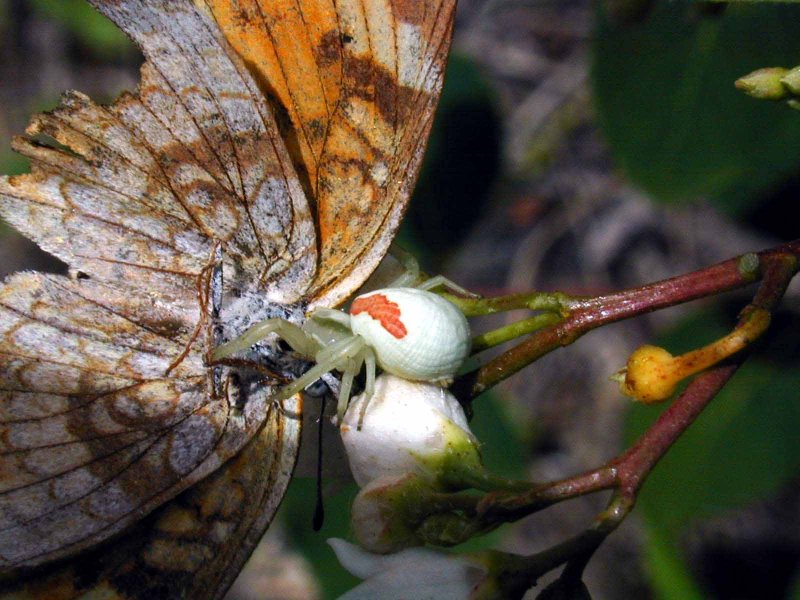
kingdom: Animalia
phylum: Arthropoda
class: Insecta
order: Lepidoptera
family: Nymphalidae
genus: Phyciodes
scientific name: Phyciodes tharos
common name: Northern Crescent
